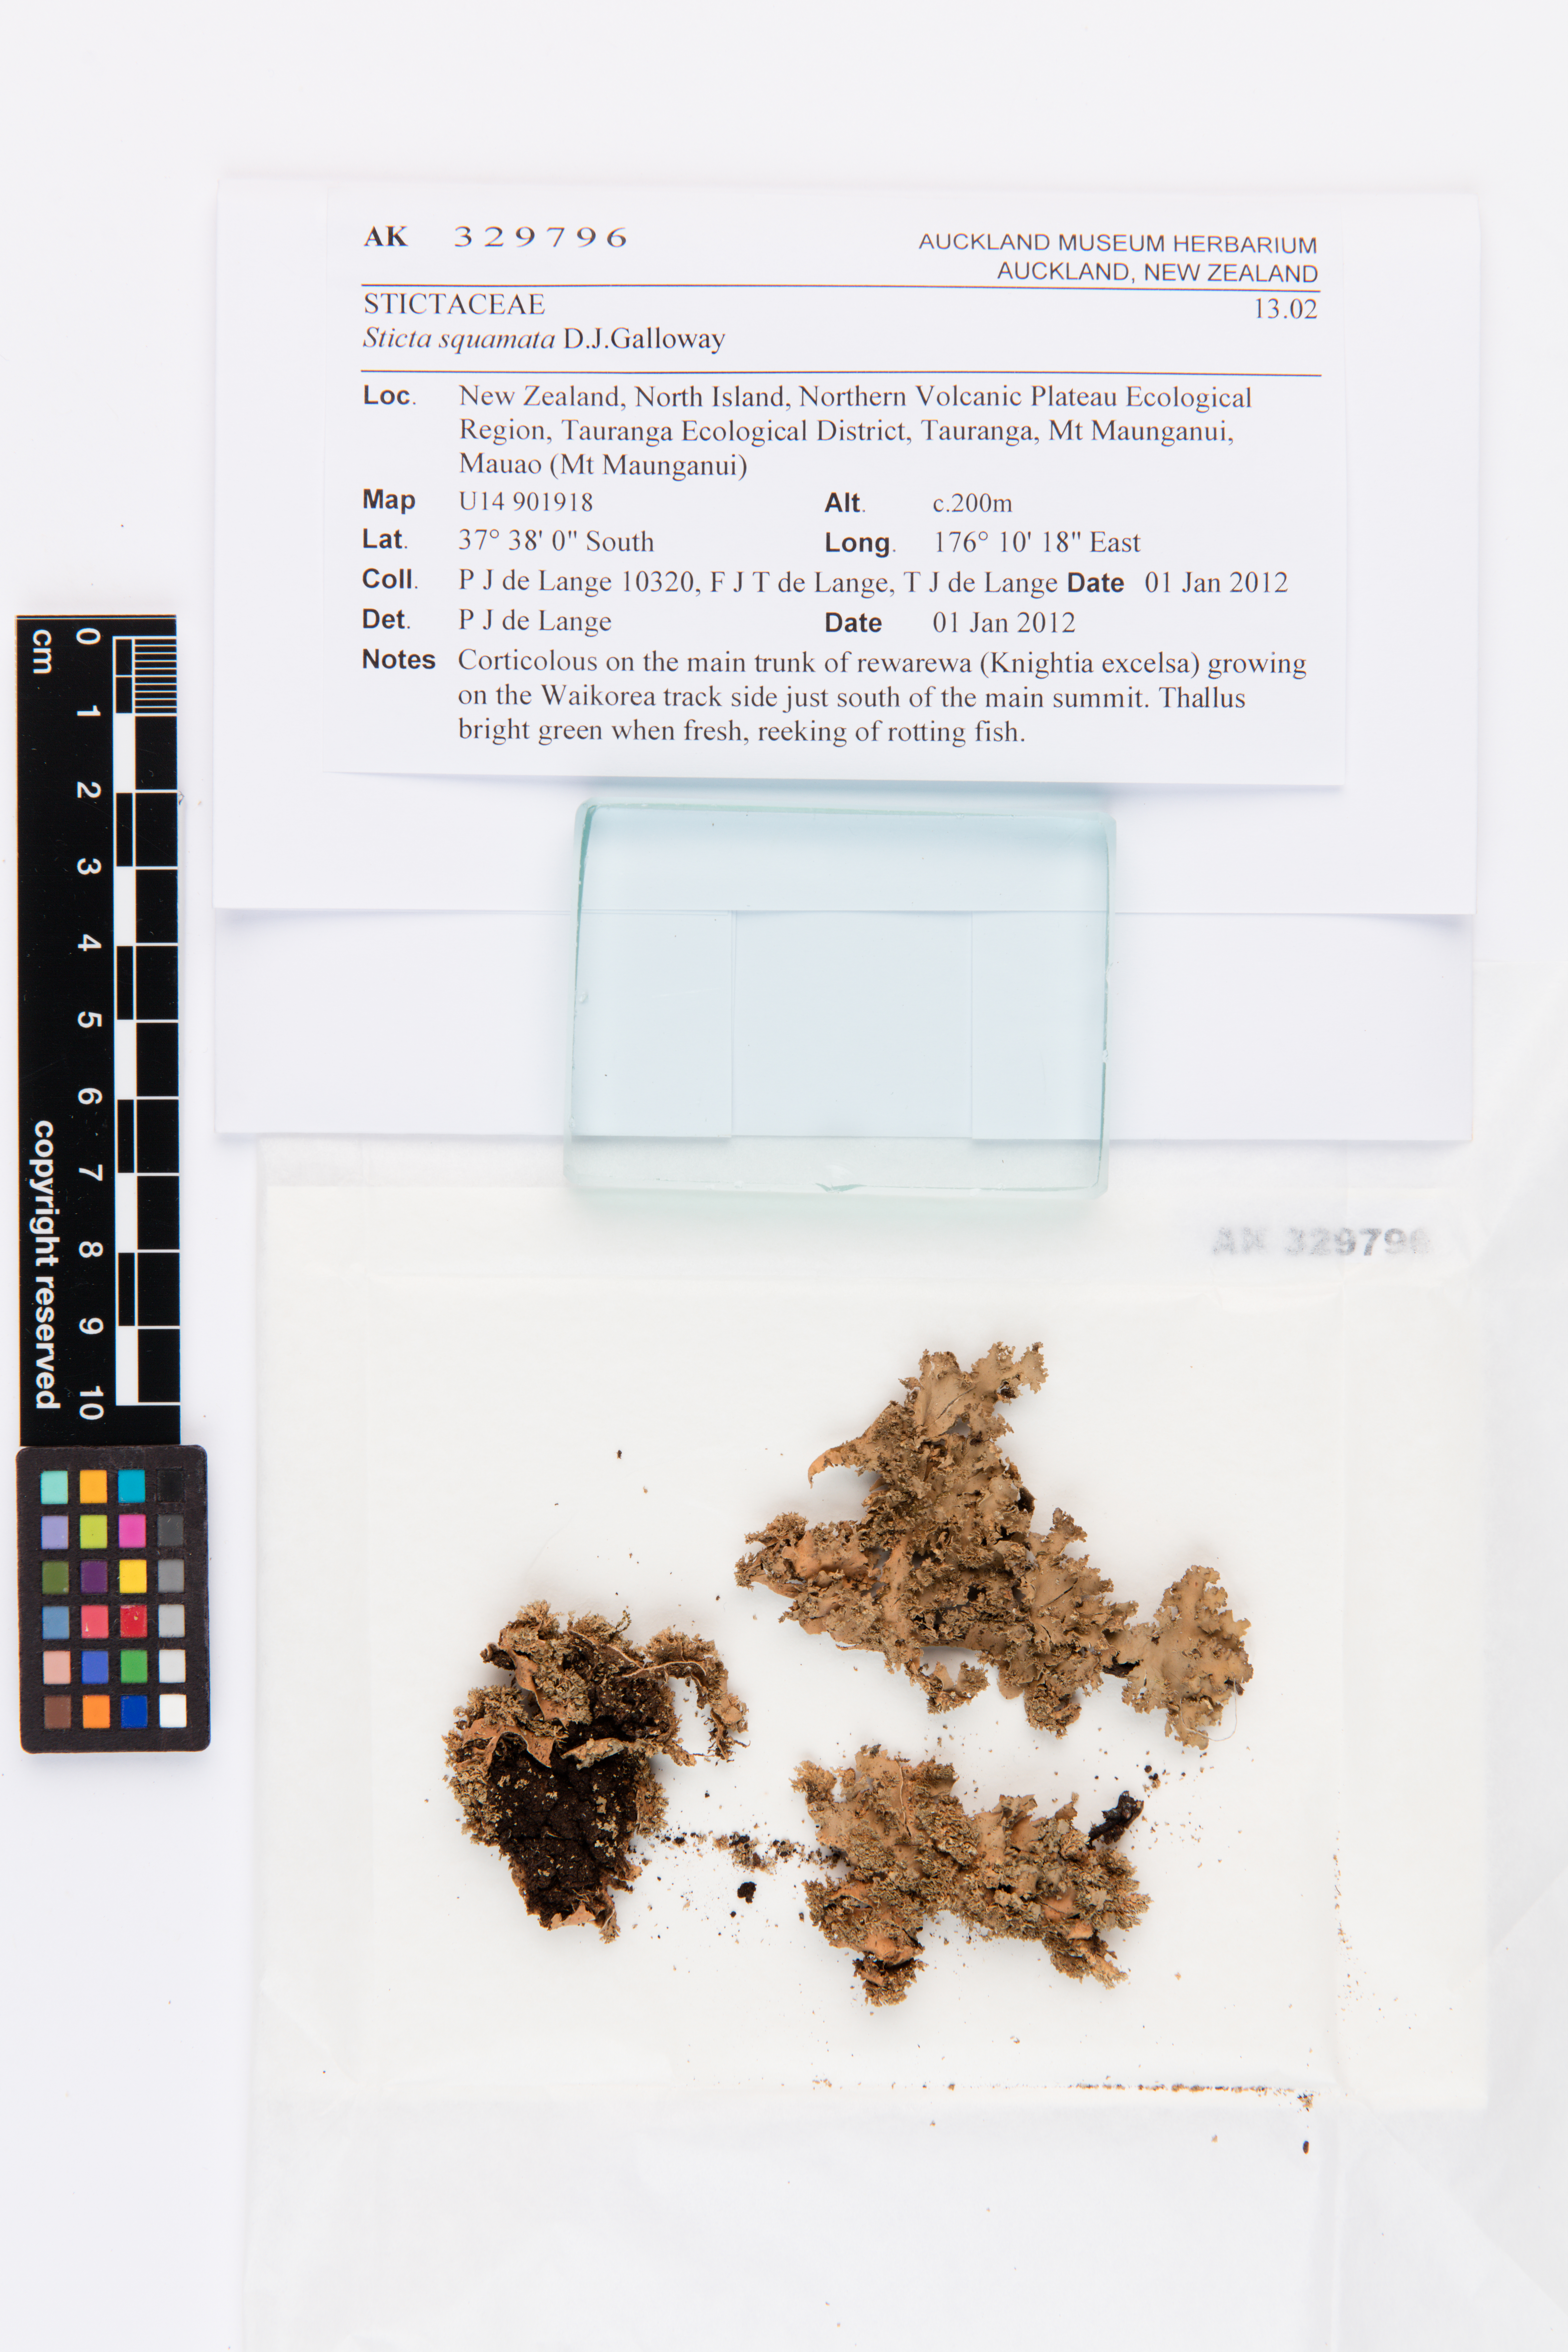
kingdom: Fungi
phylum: Ascomycota
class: Lecanoromycetes
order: Peltigerales
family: Lobariaceae
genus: Sticta
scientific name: Sticta squamata
